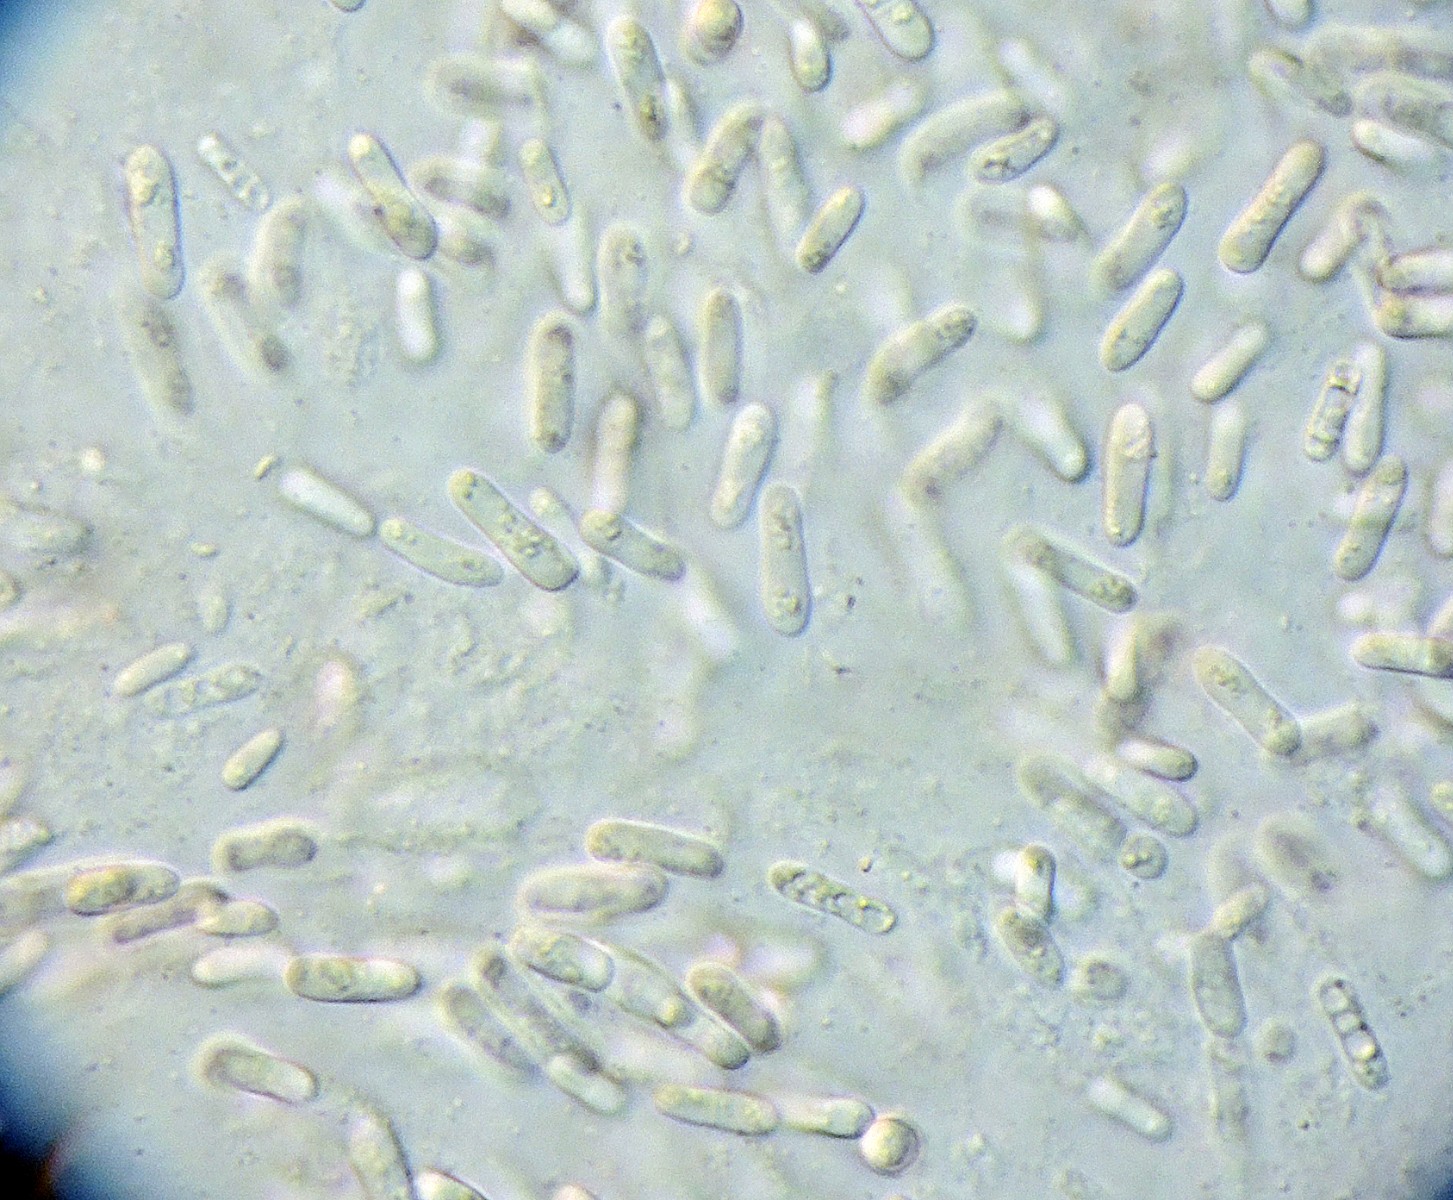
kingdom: Fungi
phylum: Ascomycota
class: Dothideomycetes
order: Pleosporales
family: Didymellaceae
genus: Ascochyta
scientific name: Ascochyta taraxaci
